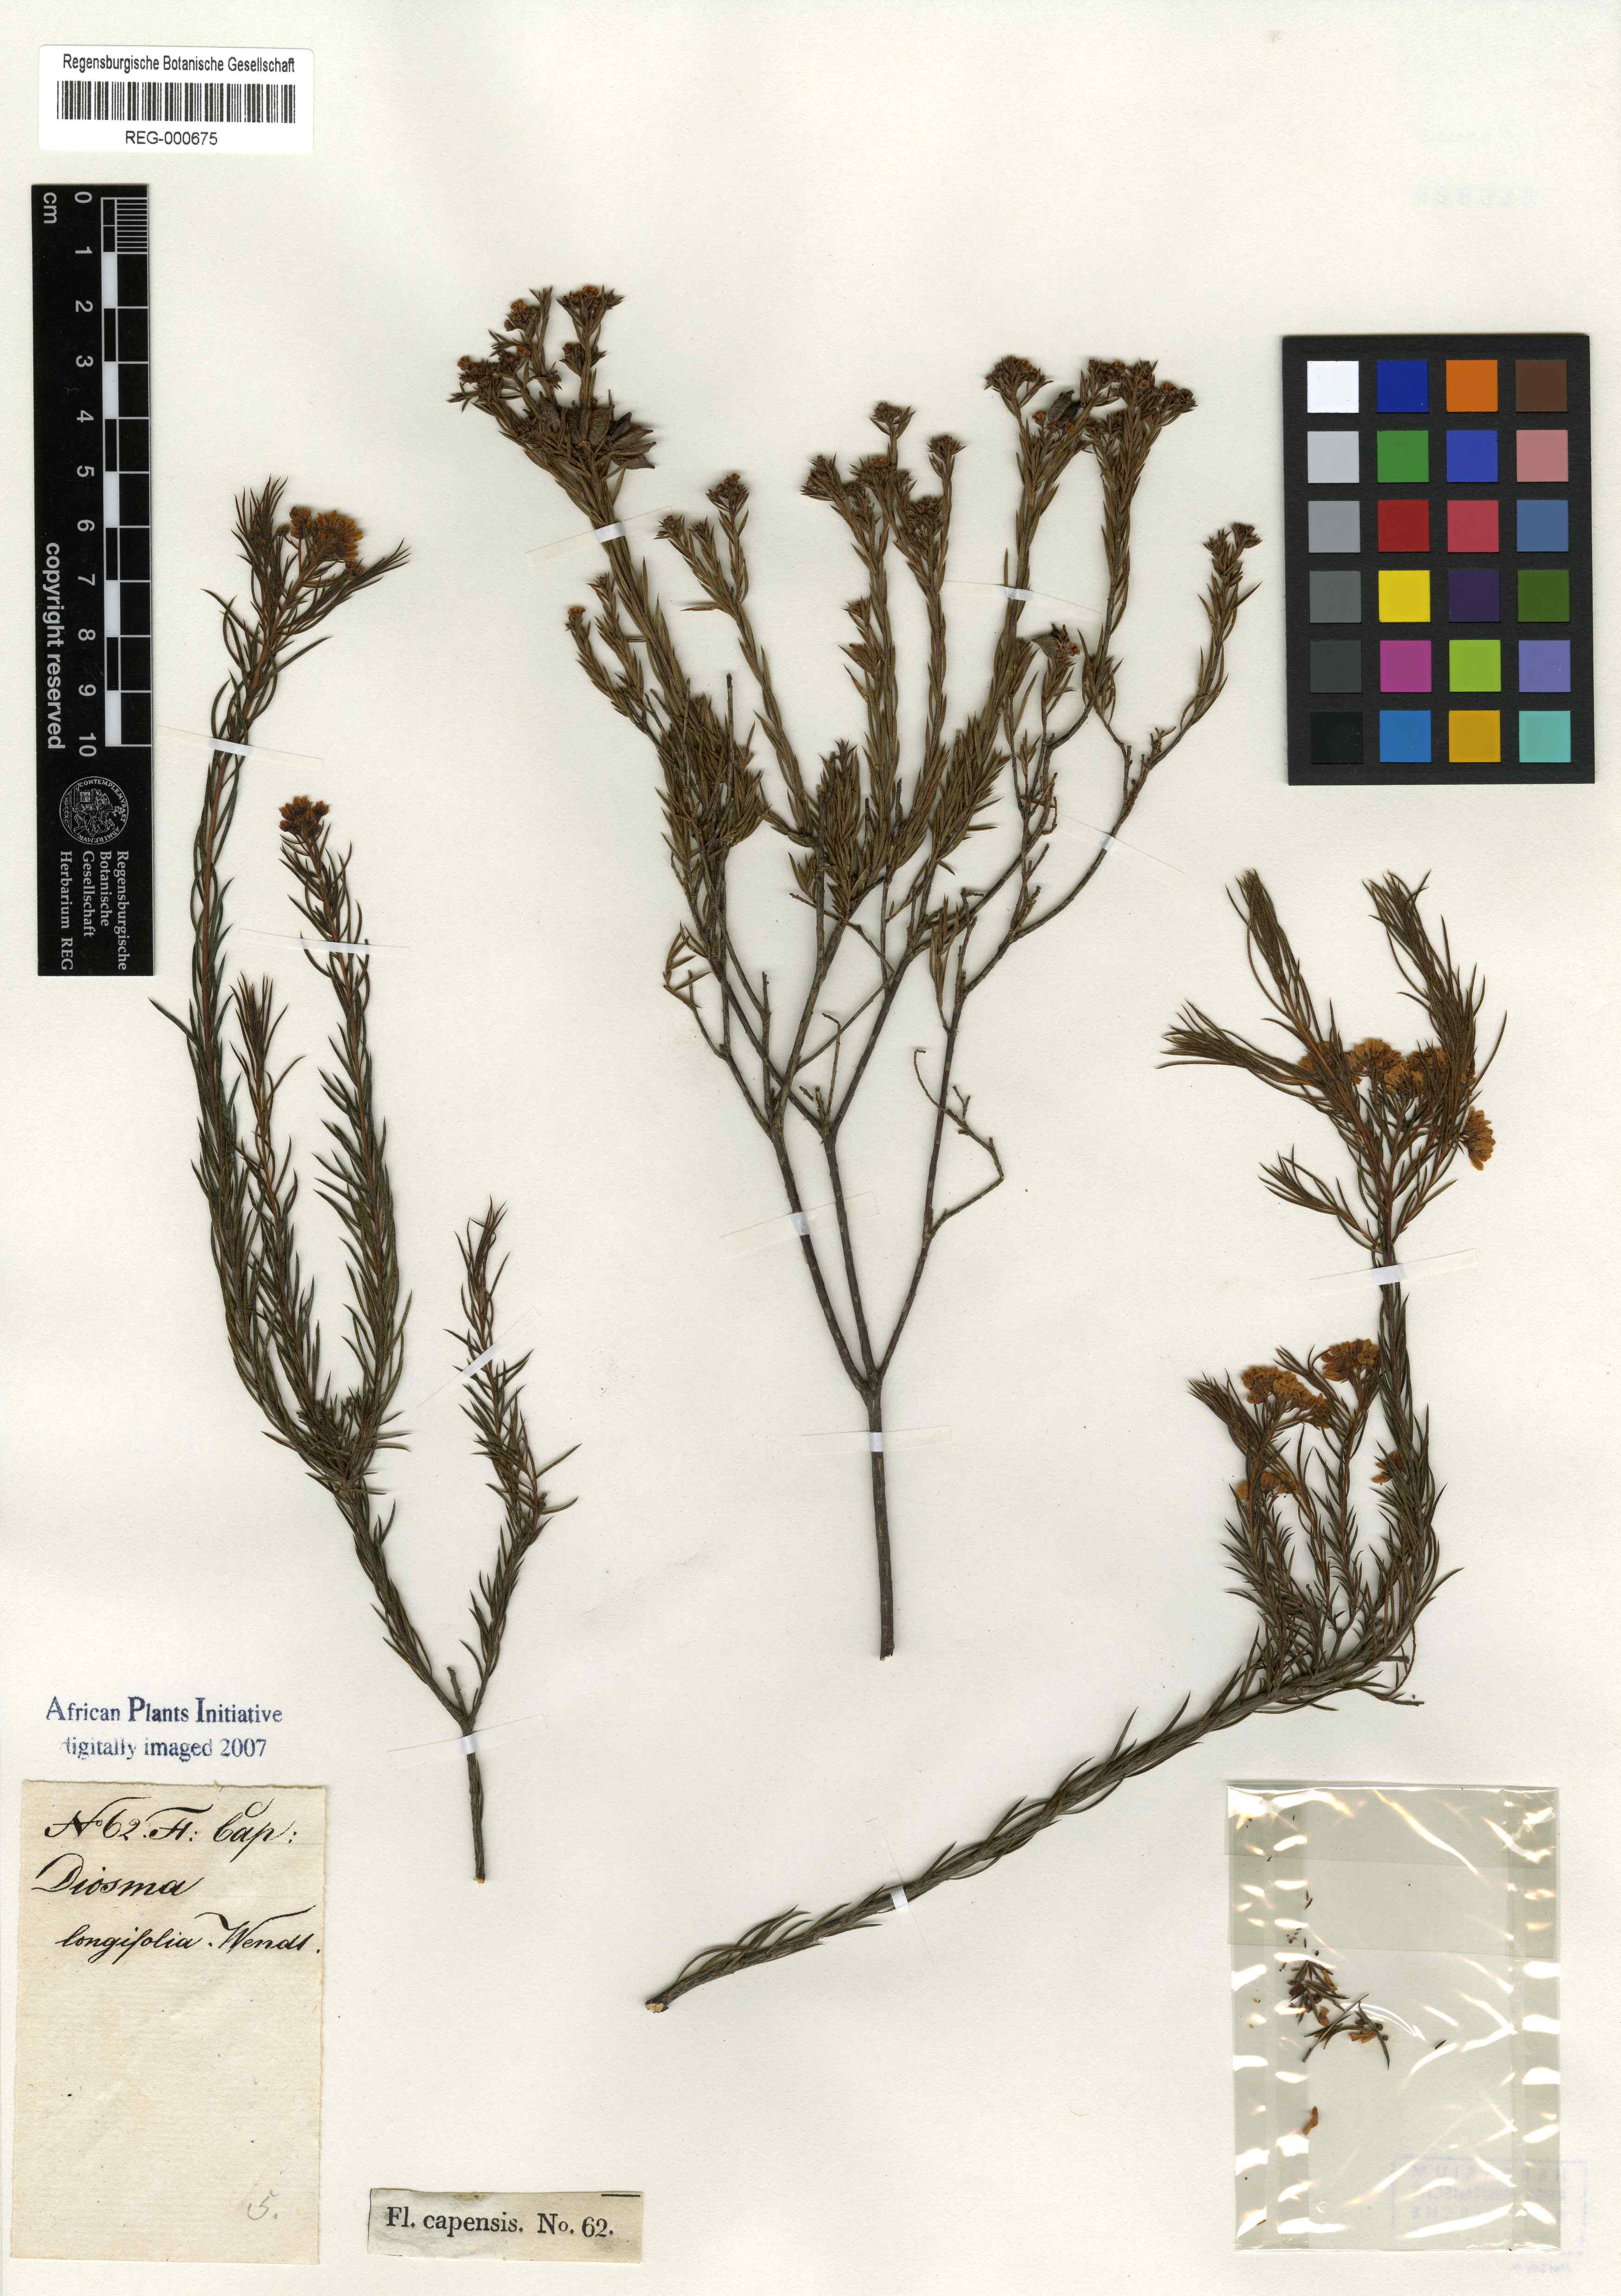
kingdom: Plantae
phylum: Tracheophyta
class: Magnoliopsida
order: Sapindales
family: Rutaceae
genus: Diosma
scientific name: Diosma hirsuta
